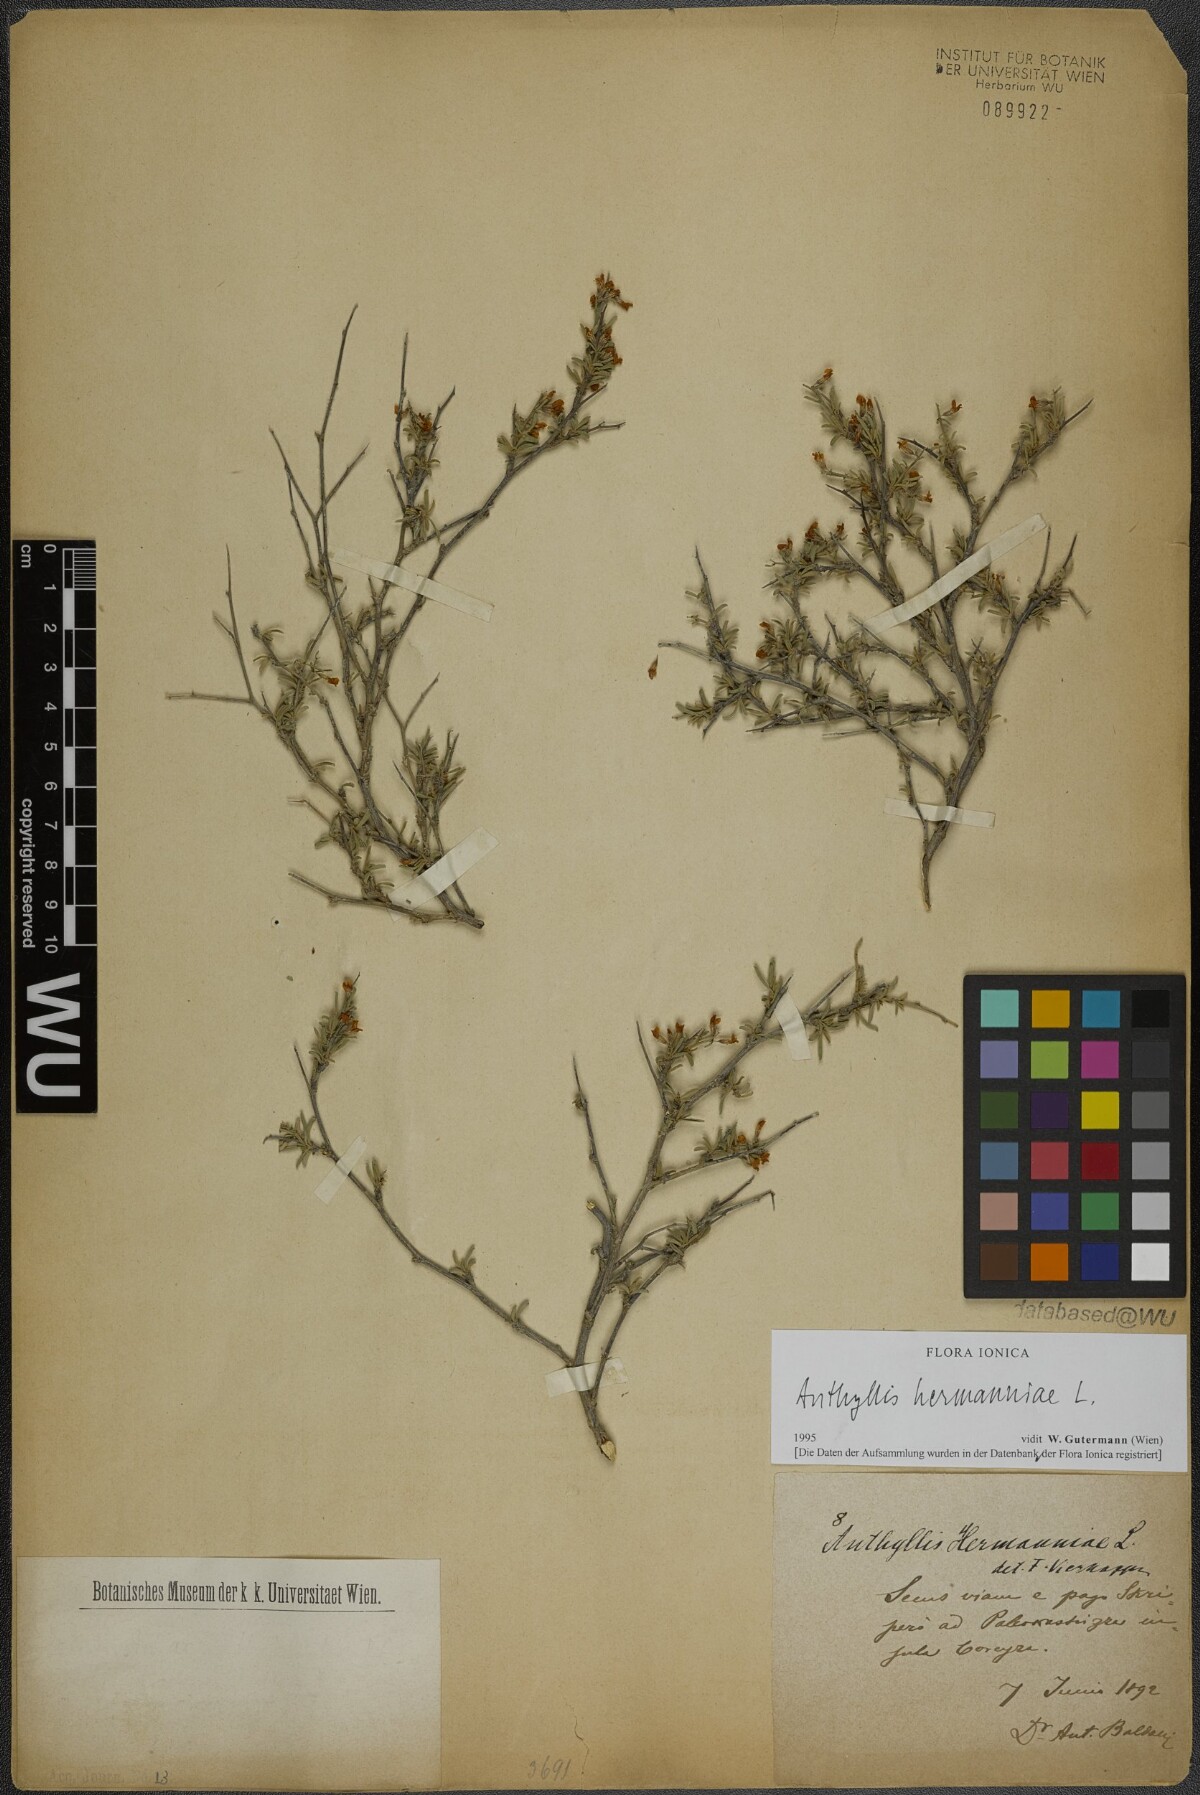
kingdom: Plantae
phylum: Tracheophyta
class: Magnoliopsida
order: Fabales
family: Fabaceae
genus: Anthyllis
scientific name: Anthyllis hermanniae
